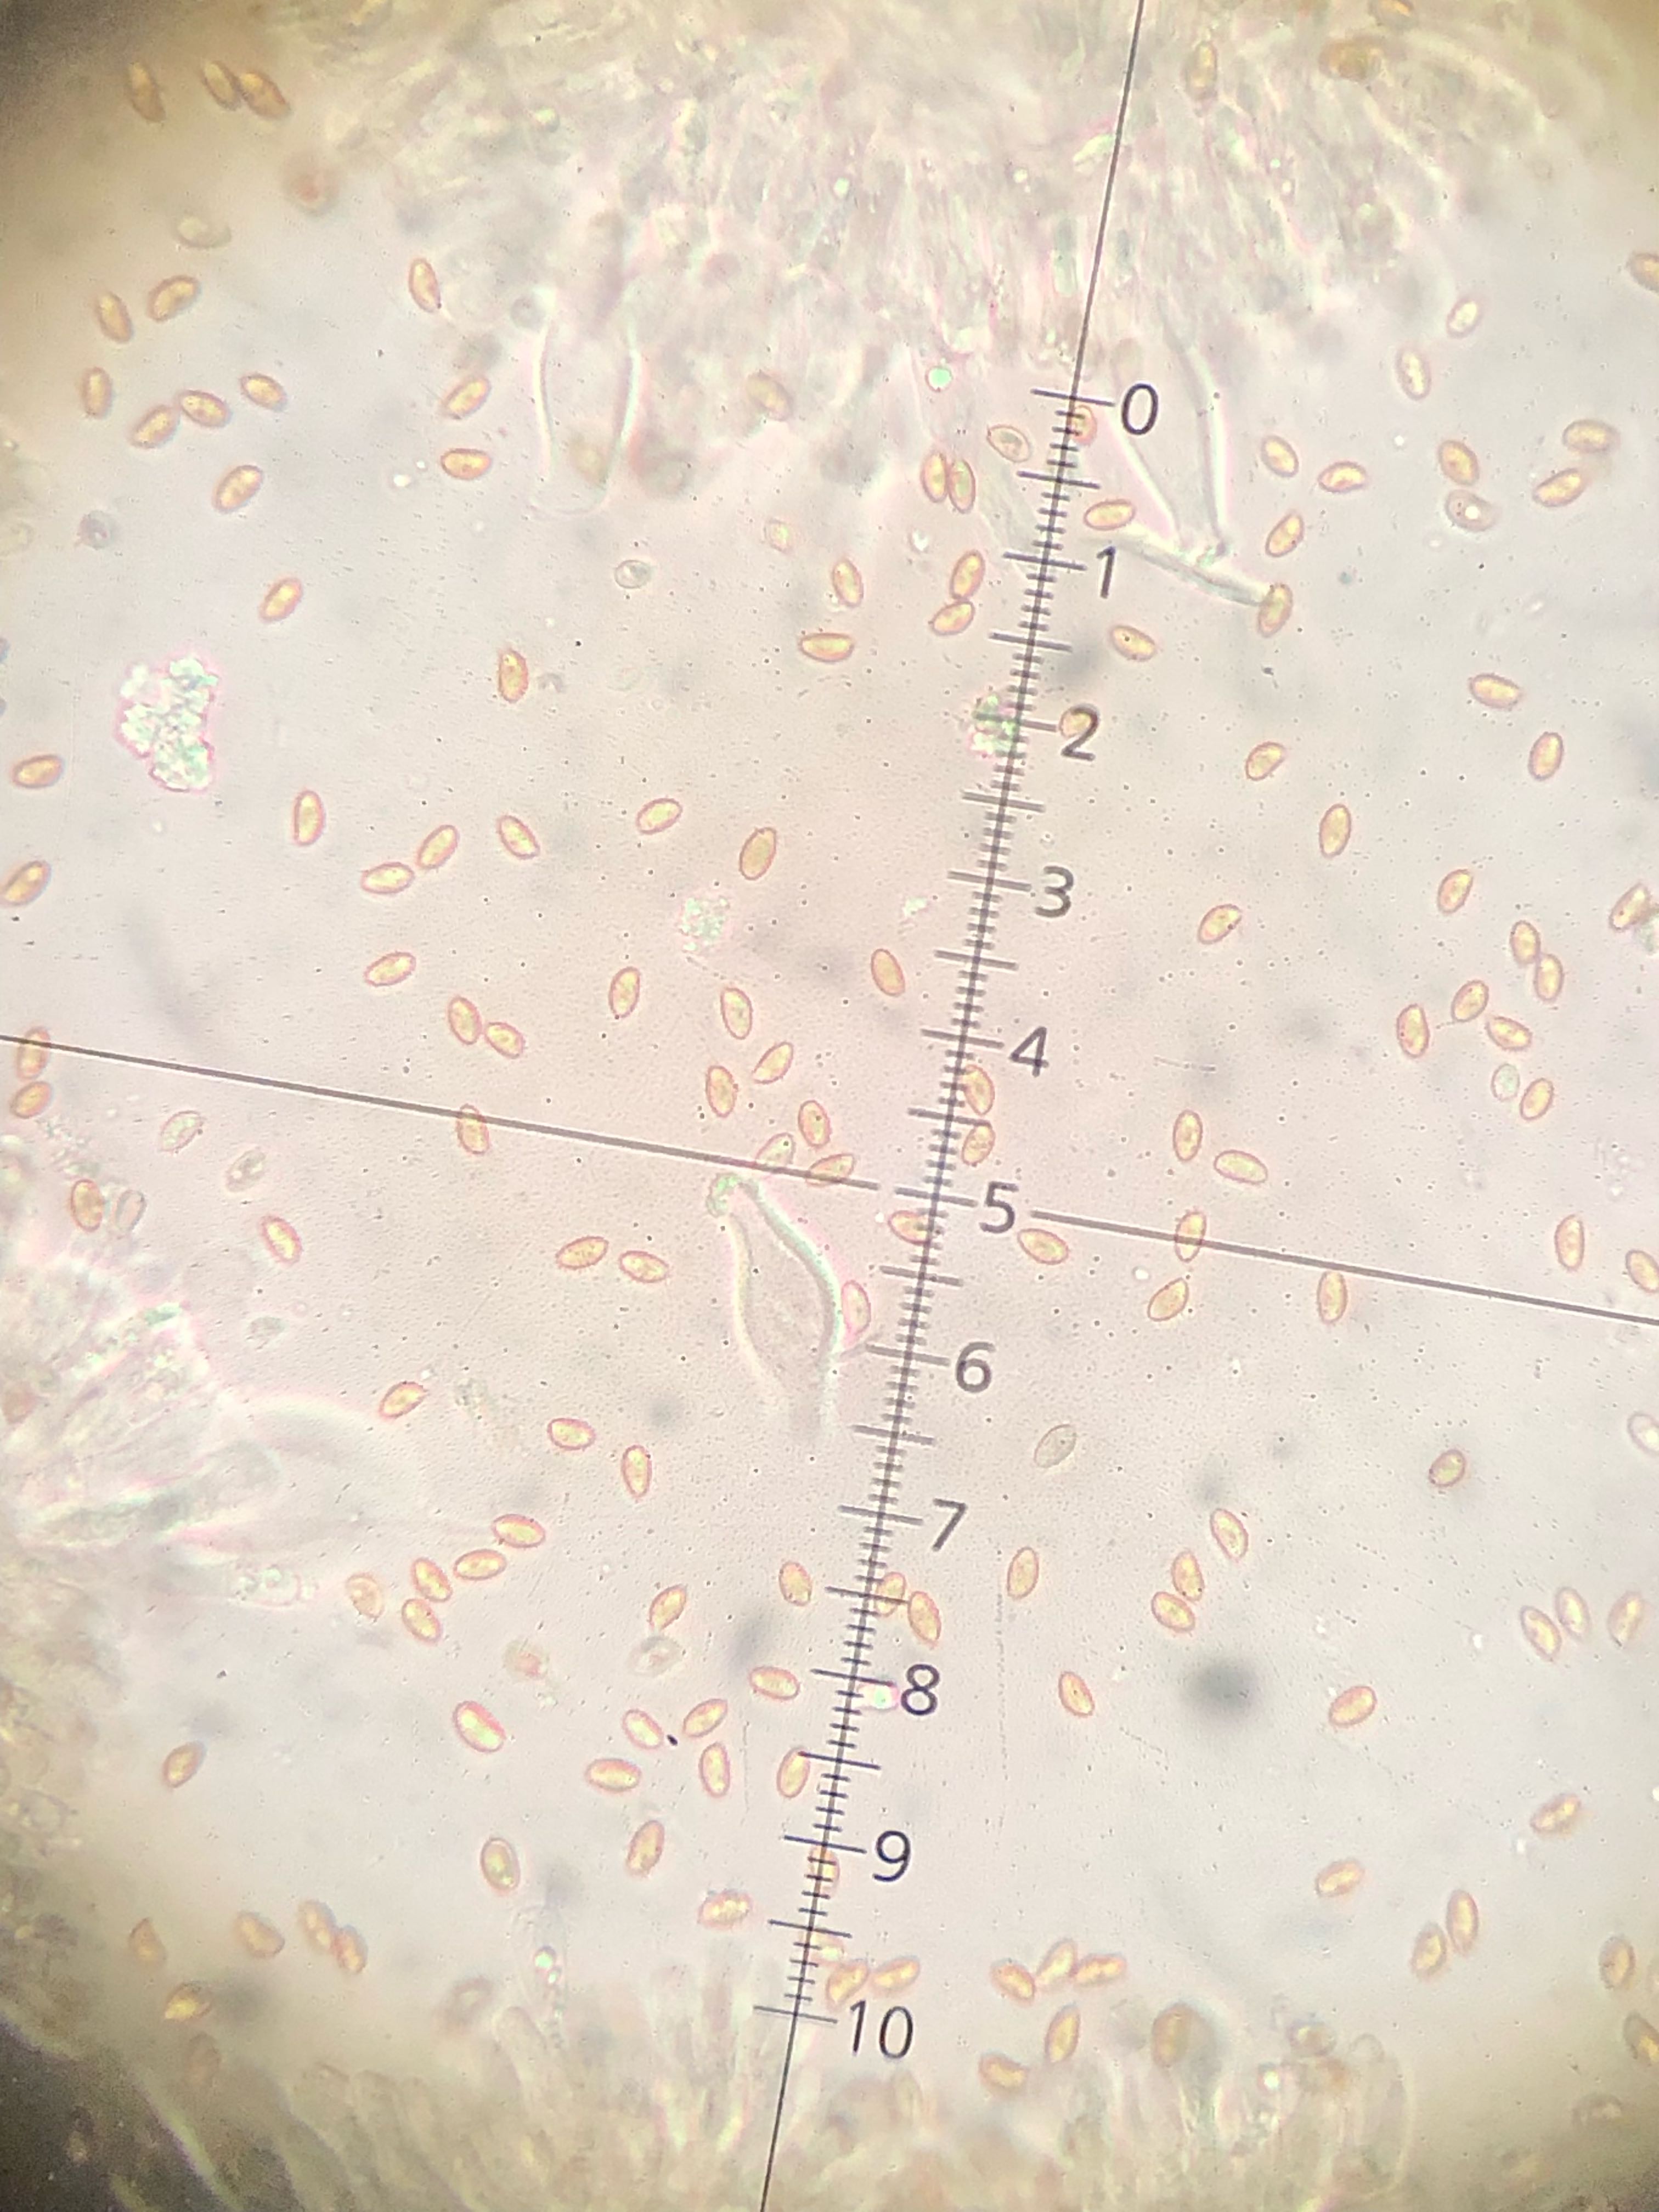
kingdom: Fungi
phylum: Basidiomycota
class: Agaricomycetes
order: Agaricales
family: Inocybaceae
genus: Inocybe
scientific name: Inocybe aphroditeana
